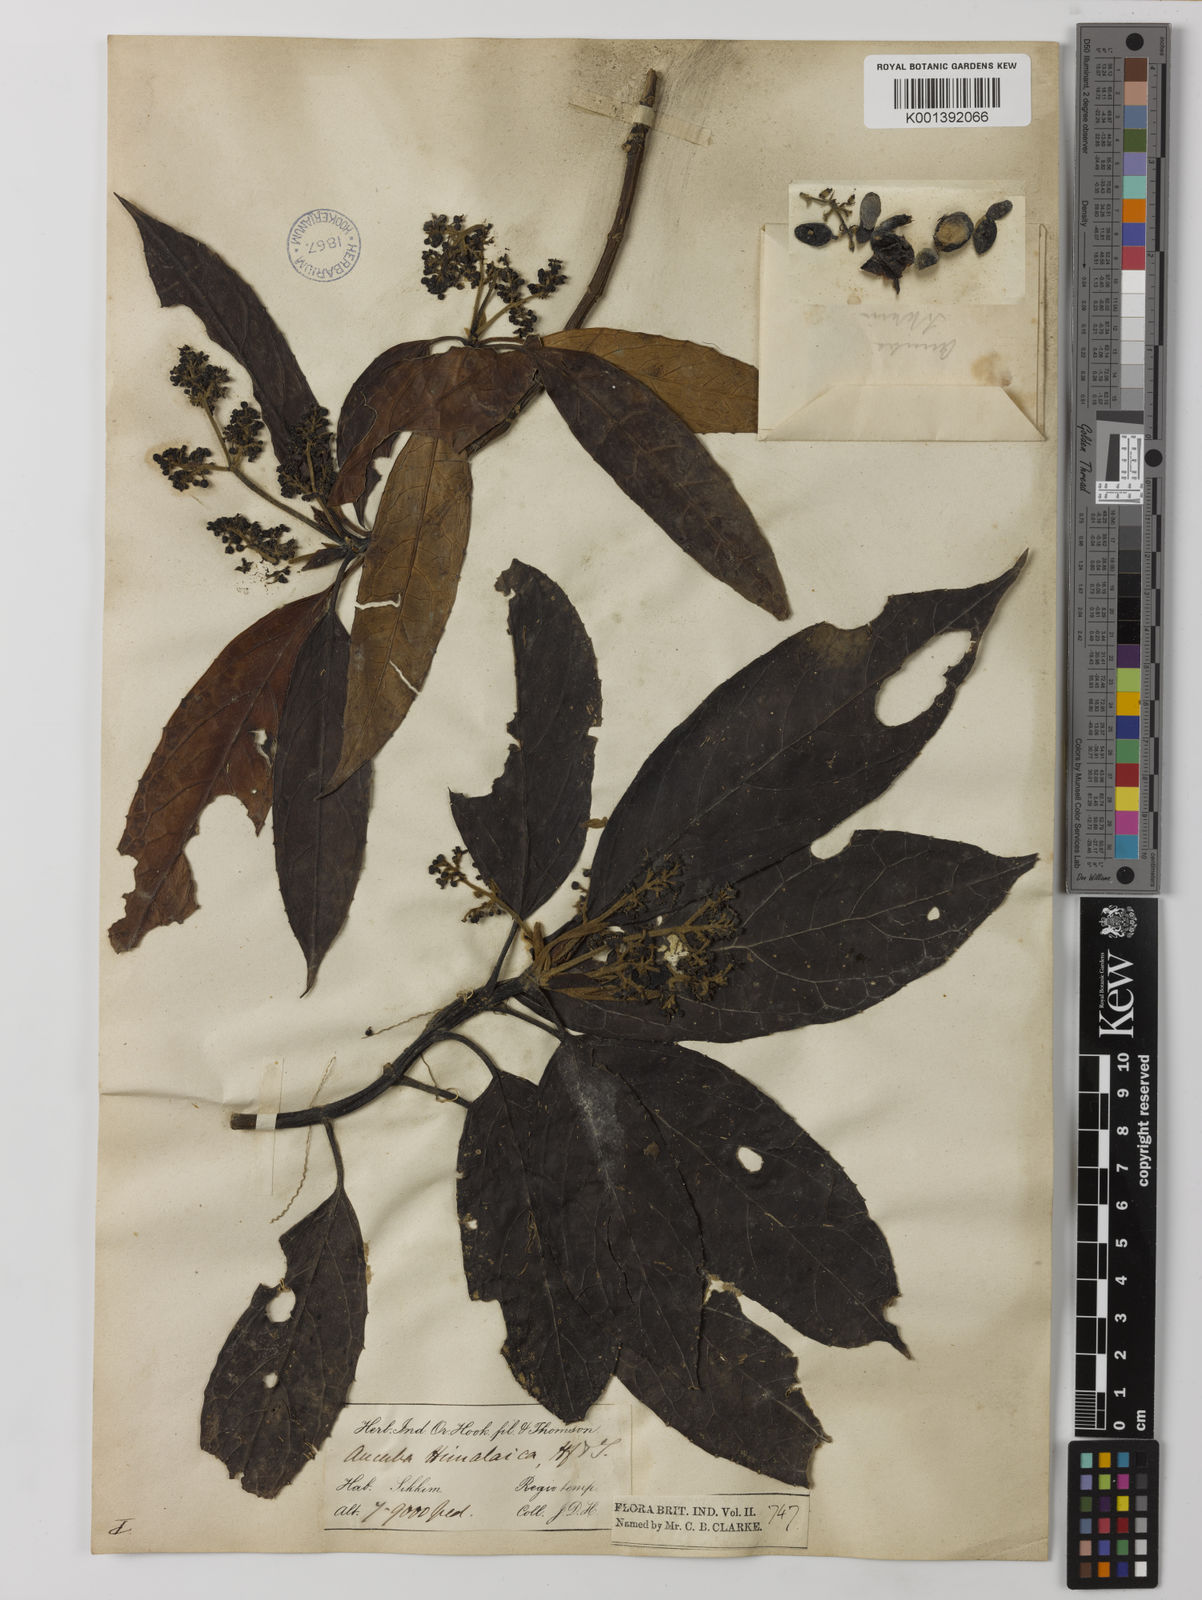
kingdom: Plantae
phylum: Tracheophyta
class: Magnoliopsida
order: Garryales
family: Garryaceae
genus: Aucuba
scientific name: Aucuba himalaica
